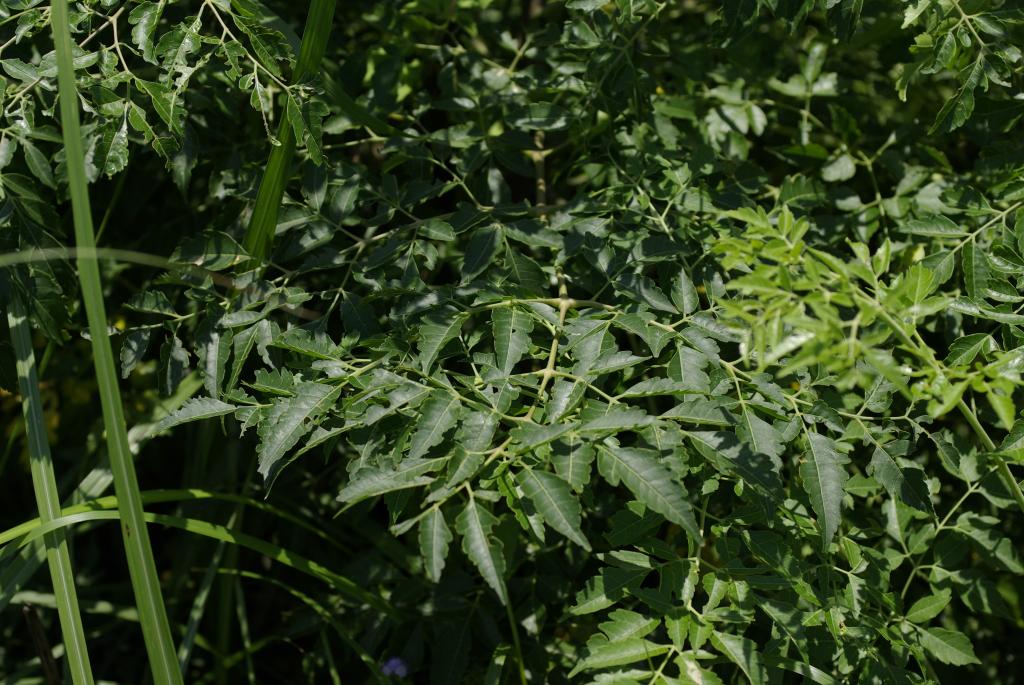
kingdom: Plantae
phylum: Tracheophyta
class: Magnoliopsida
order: Sapindales
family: Meliaceae
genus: Melia
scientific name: Melia azedarach
